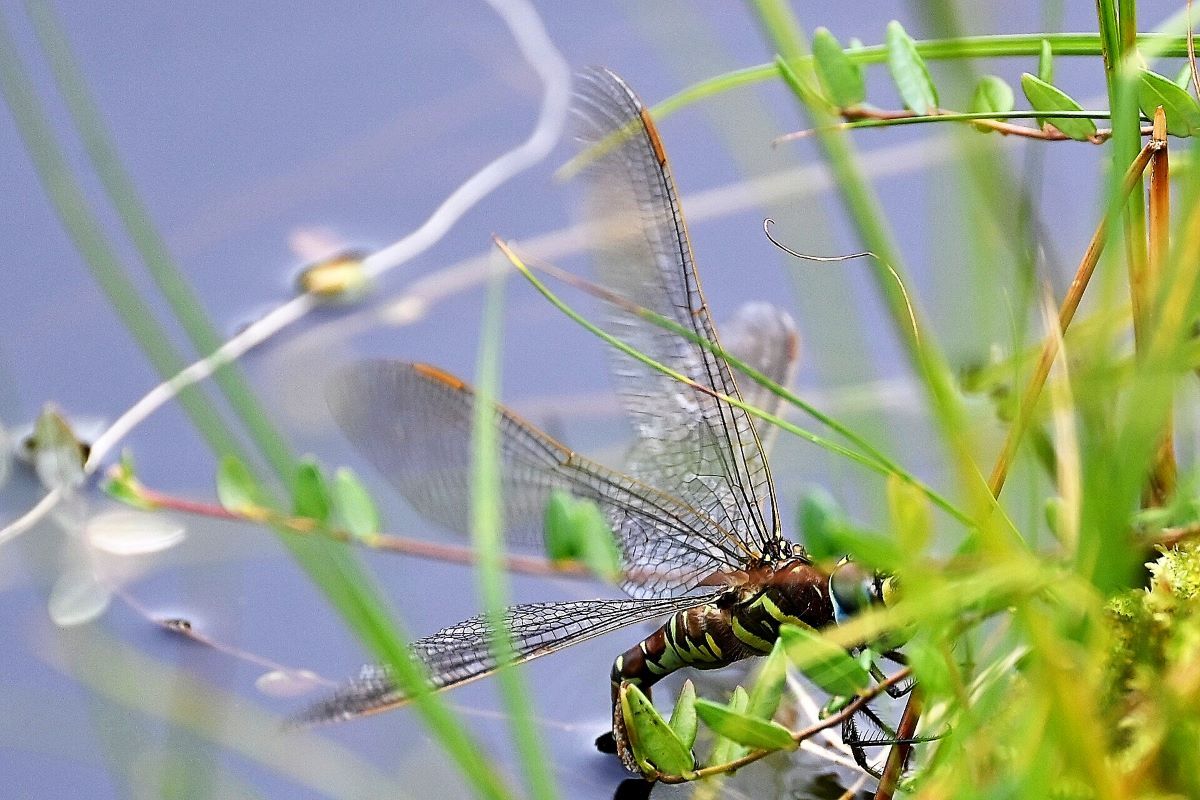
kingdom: Animalia
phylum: Arthropoda
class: Insecta
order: Odonata
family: Aeshnidae
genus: Aeshna
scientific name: Aeshna crenata
